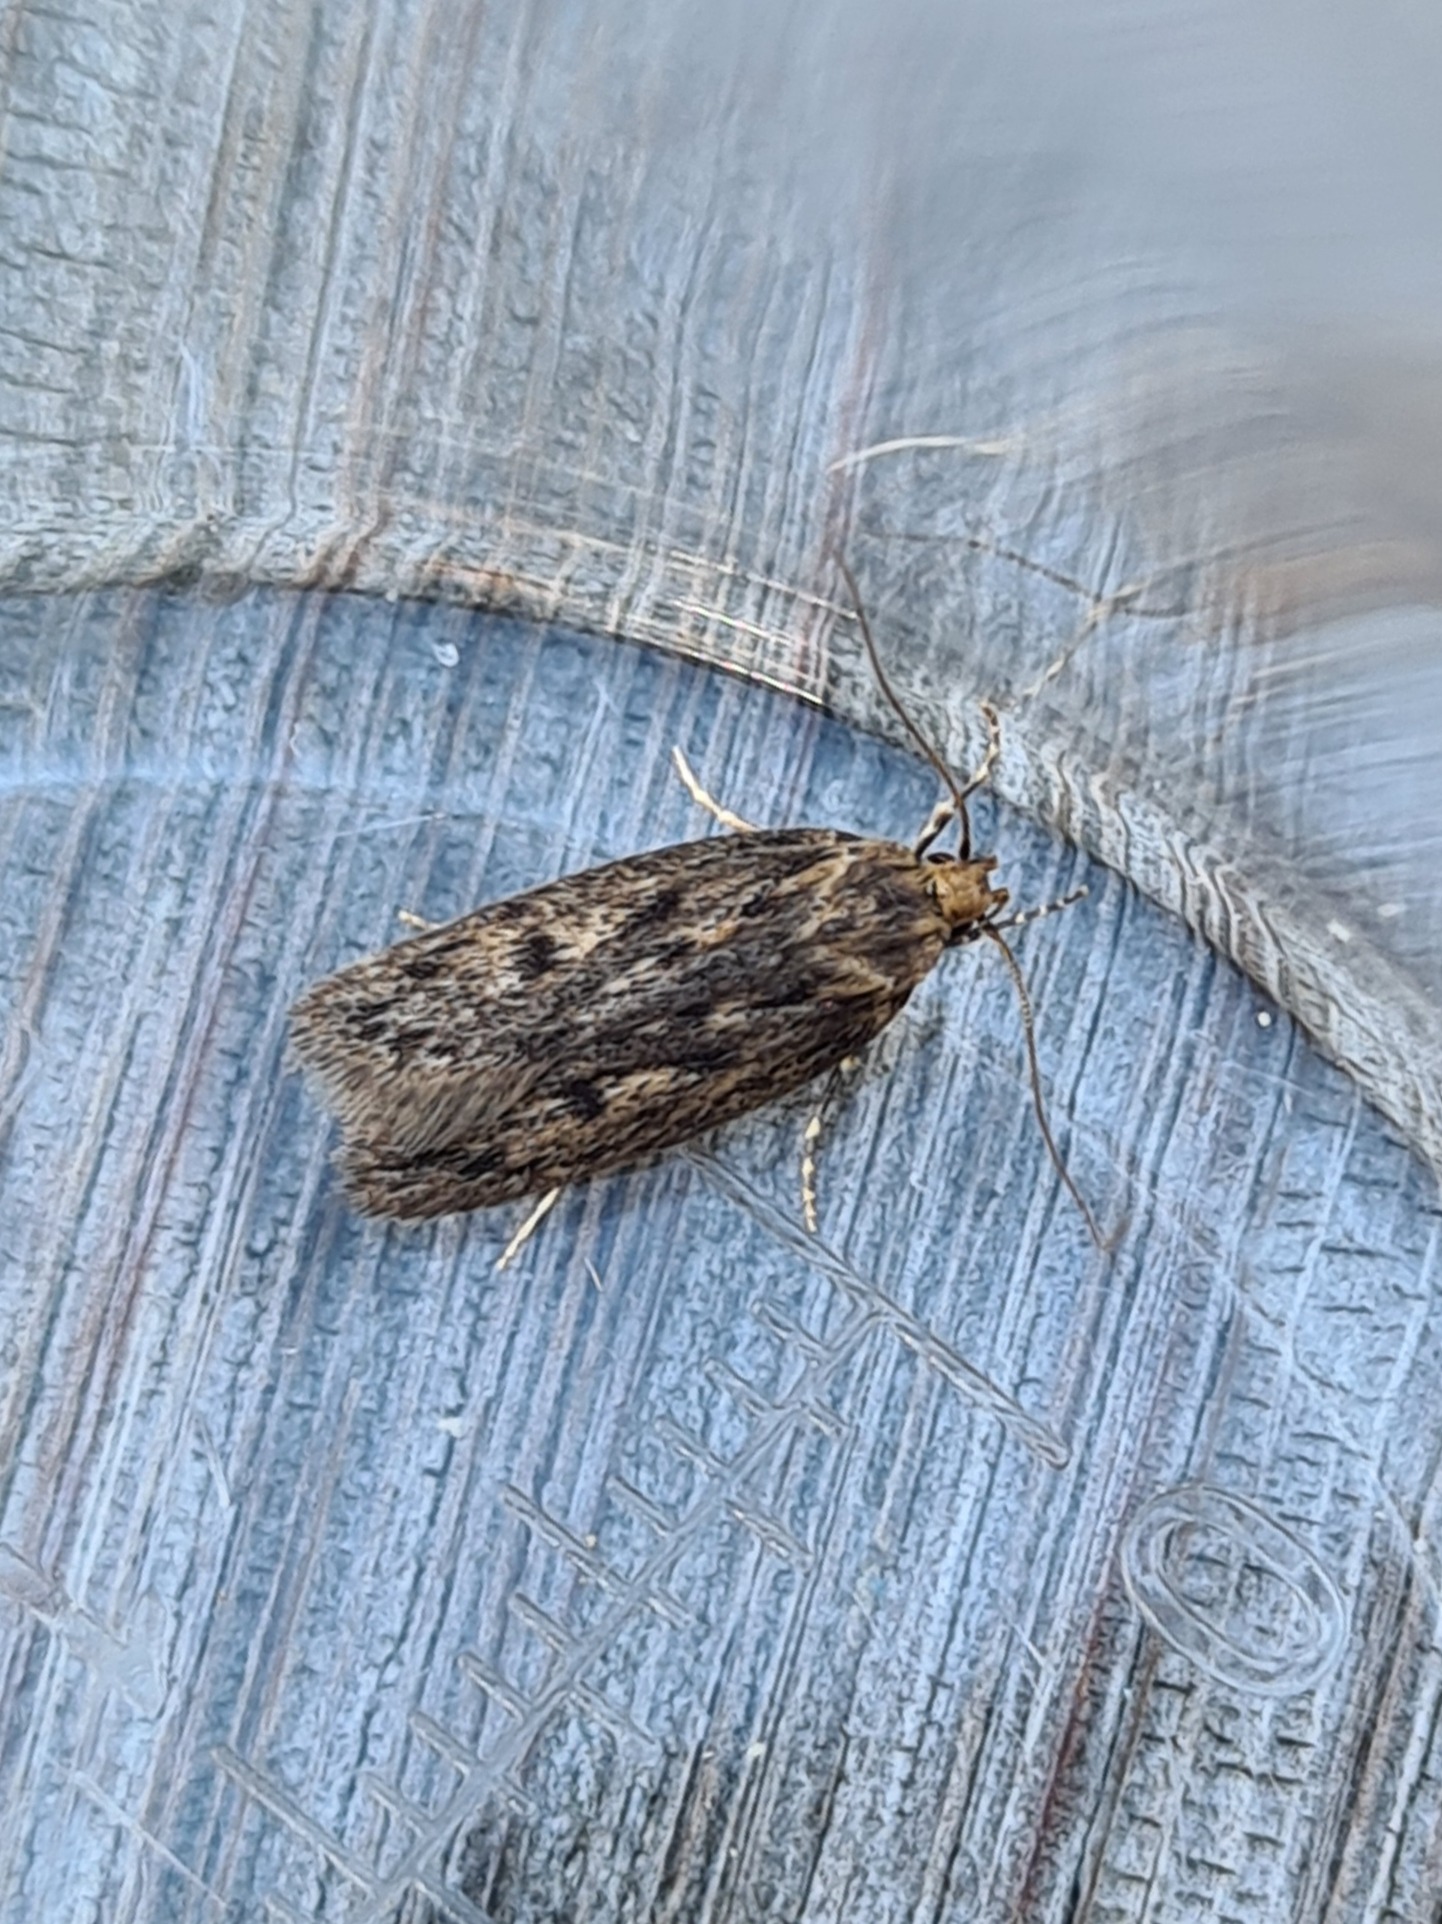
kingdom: Animalia
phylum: Arthropoda
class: Insecta
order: Lepidoptera
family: Oecophoridae
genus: Hofmannophila
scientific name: Hofmannophila pseudospretella
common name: Frømøl
